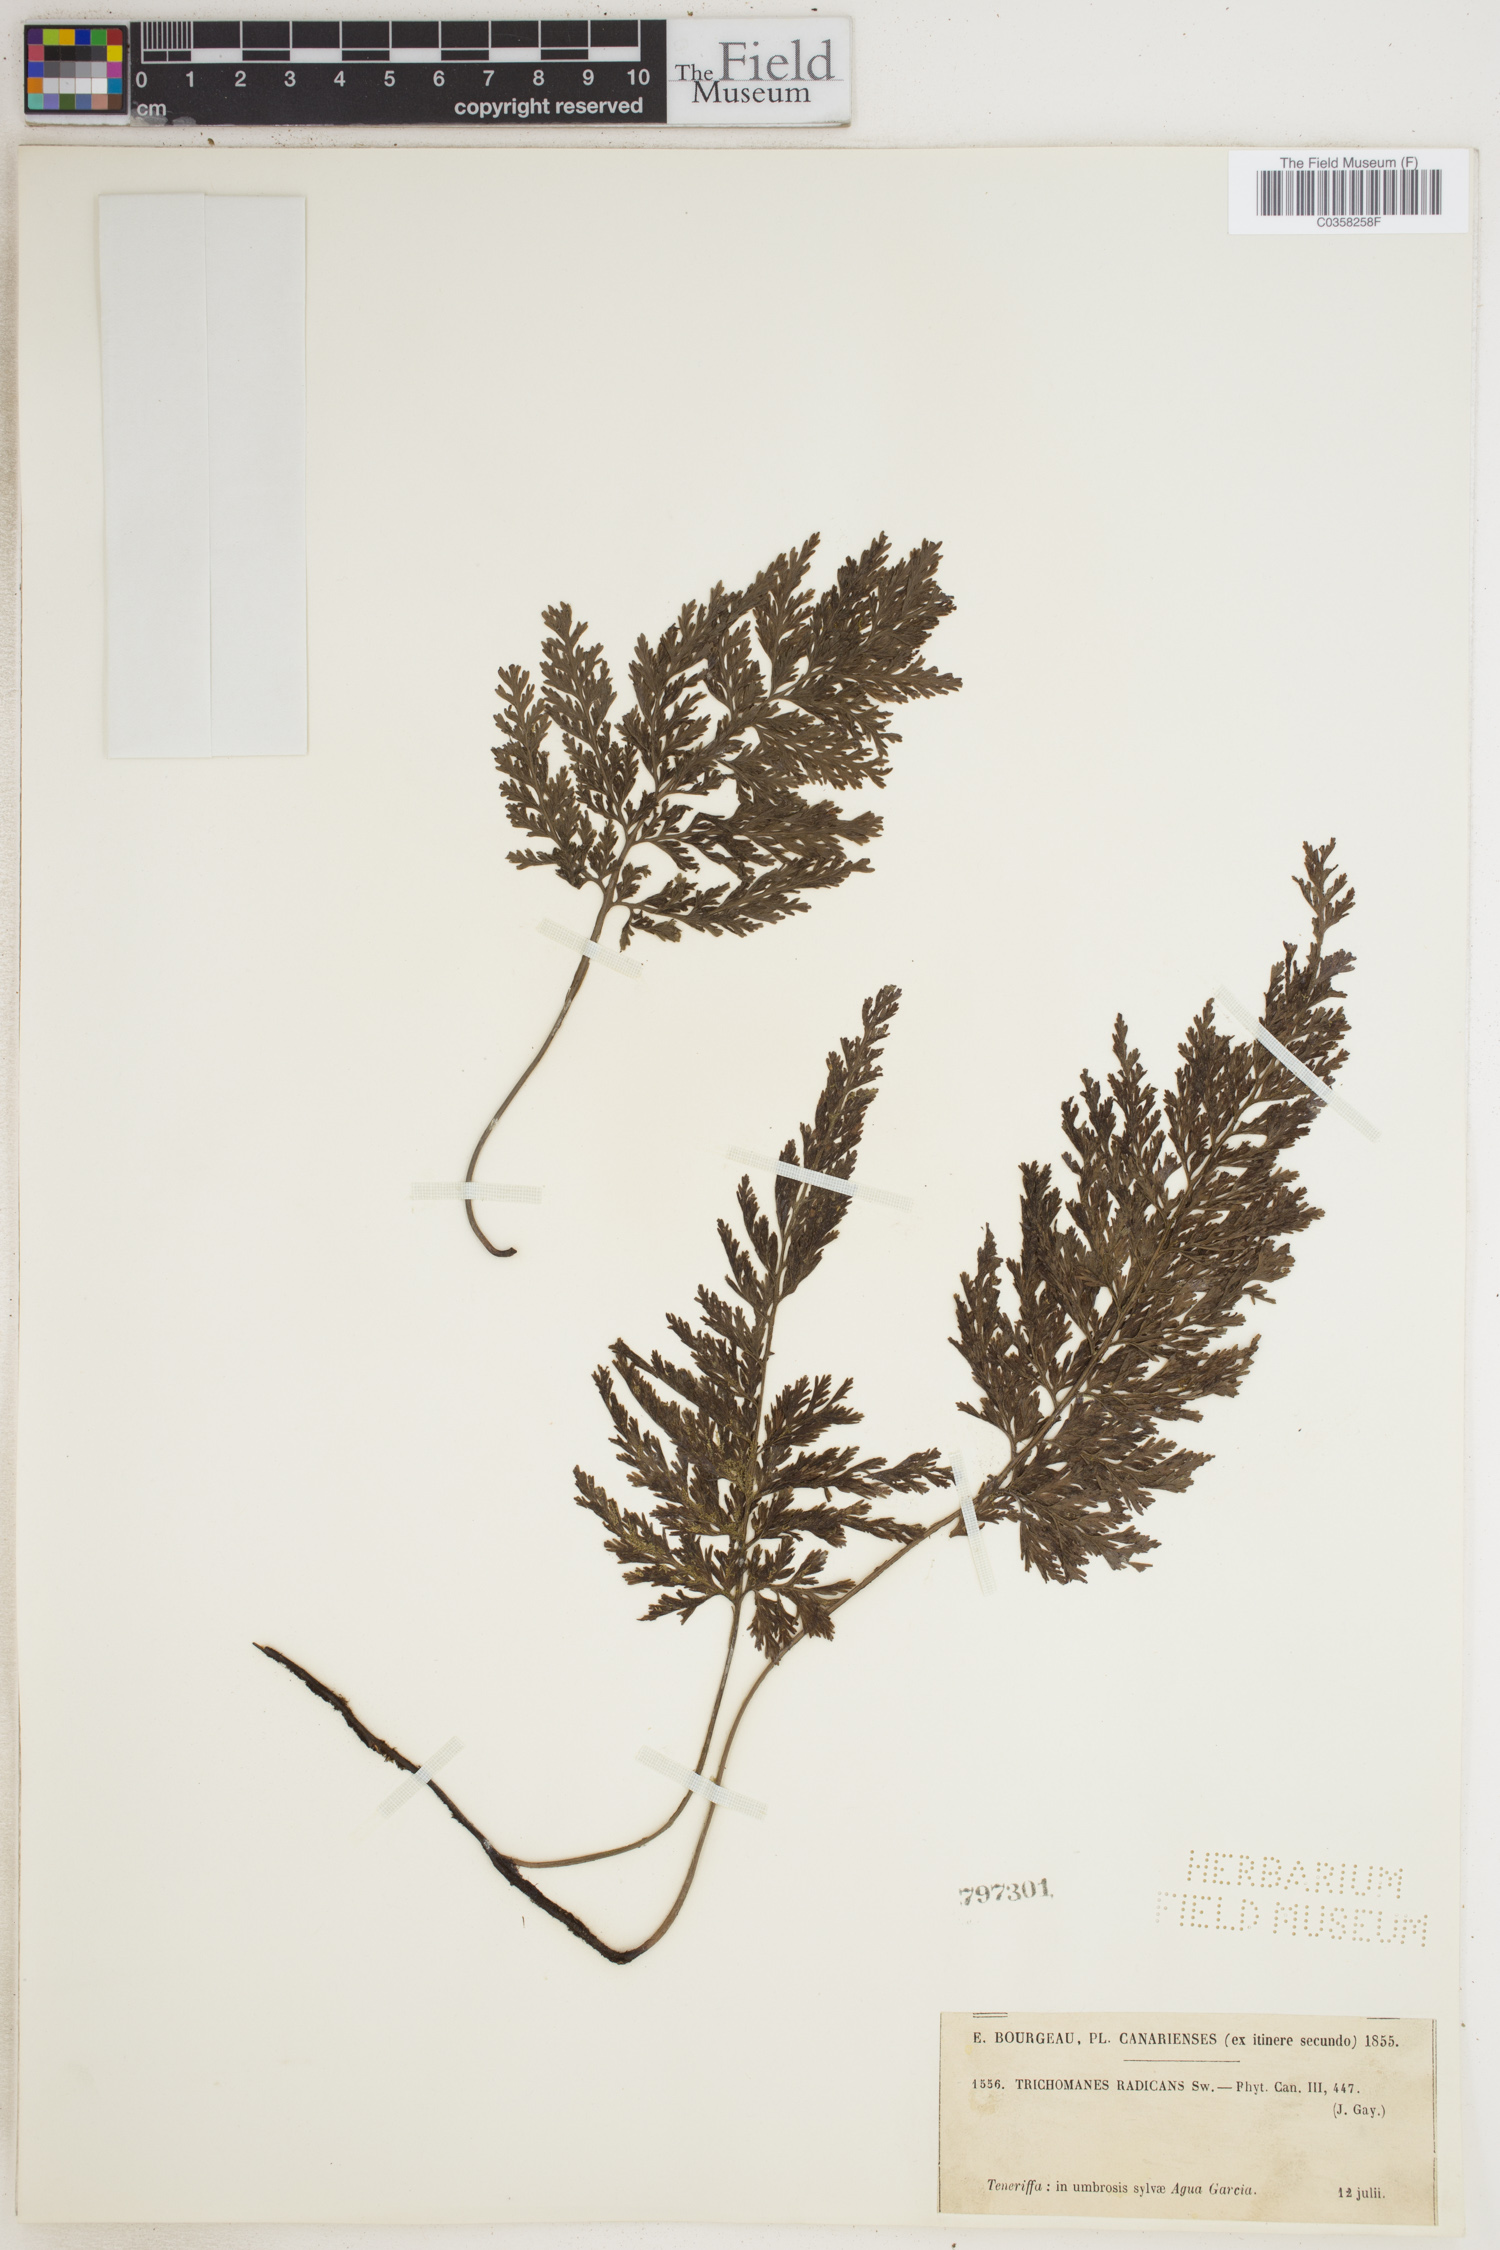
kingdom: Plantae
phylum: Tracheophyta
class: Polypodiopsida
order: Hymenophyllales
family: Hymenophyllaceae
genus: Vandenboschia
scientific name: Vandenboschia radicans
